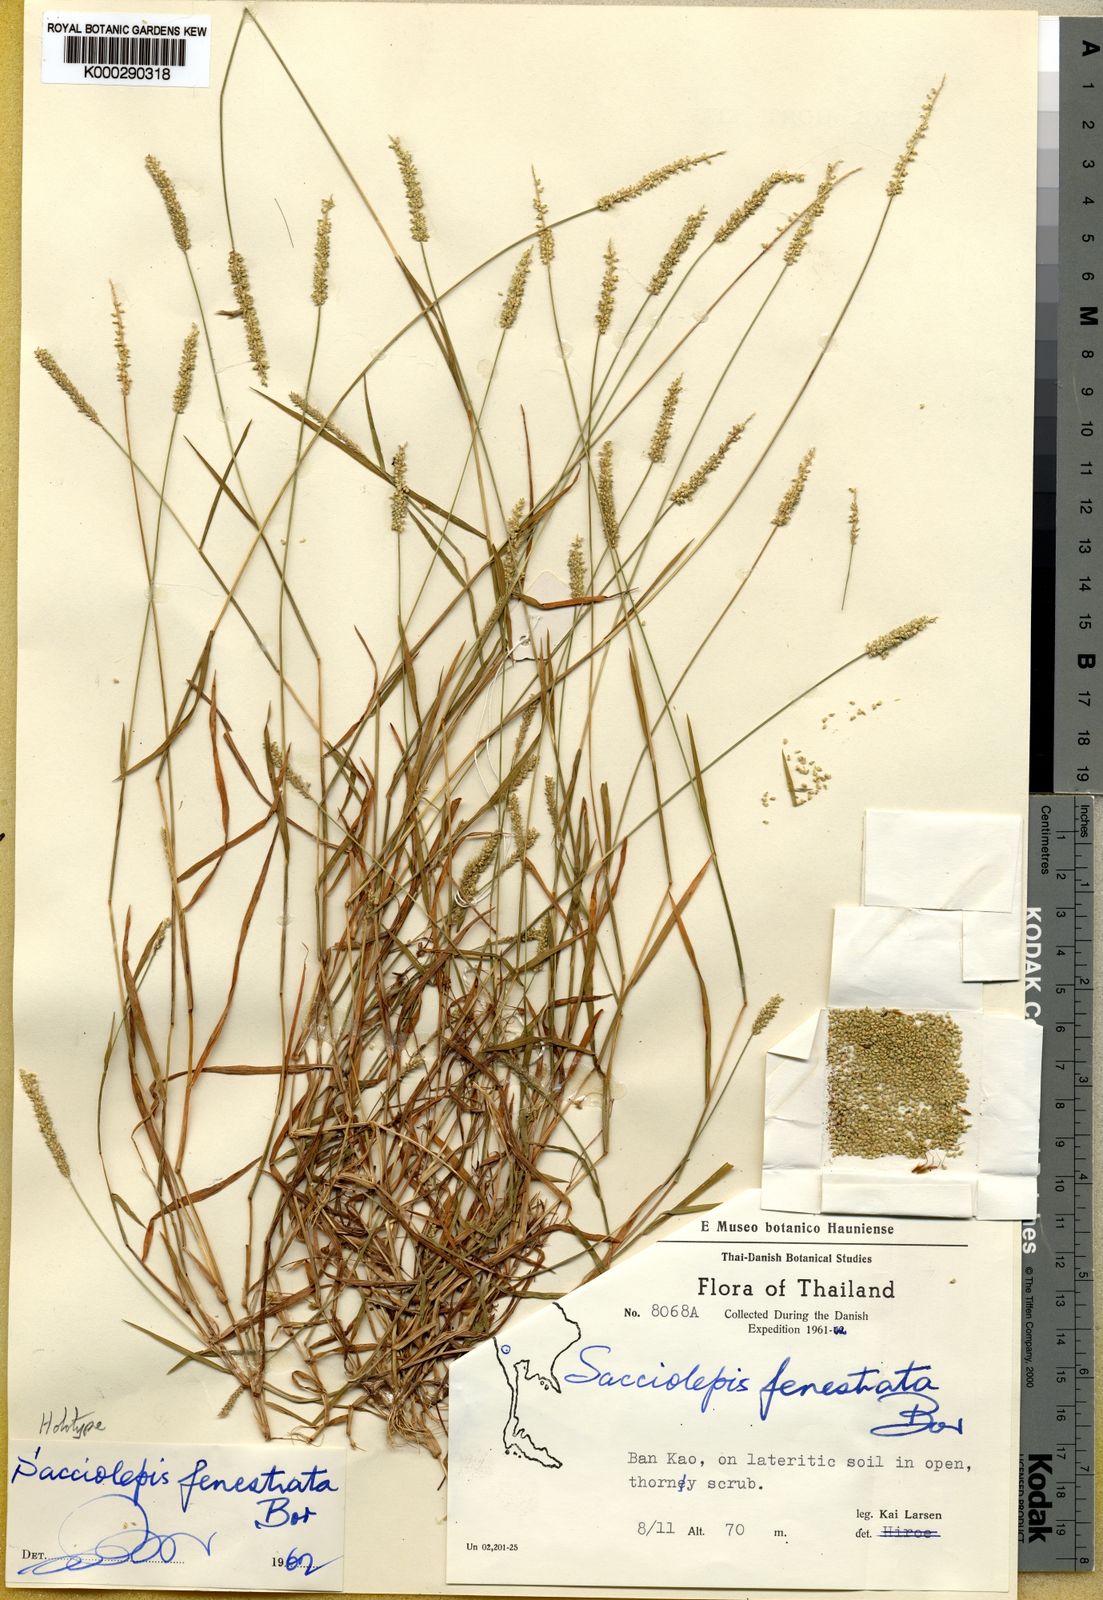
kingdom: Plantae
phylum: Tracheophyta
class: Liliopsida
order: Poales
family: Poaceae
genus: Sacciolepis
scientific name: Sacciolepis fenestrata
